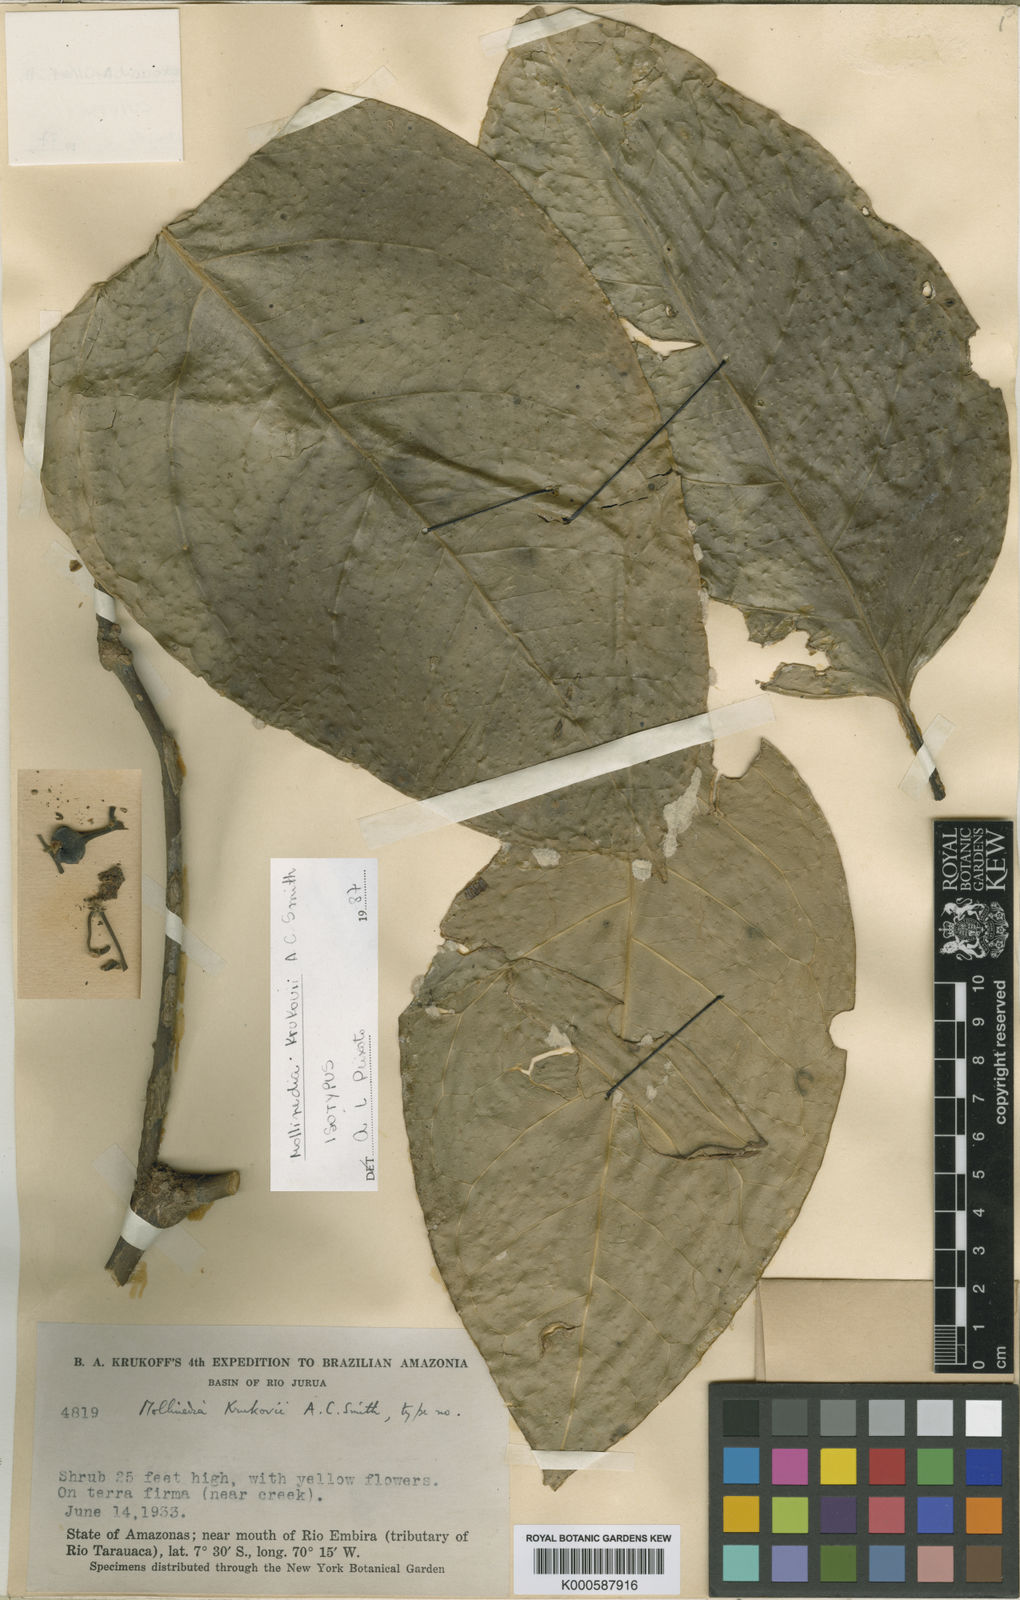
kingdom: Plantae
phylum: Tracheophyta
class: Magnoliopsida
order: Laurales
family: Monimiaceae
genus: Mollinedia
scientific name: Mollinedia ovata
